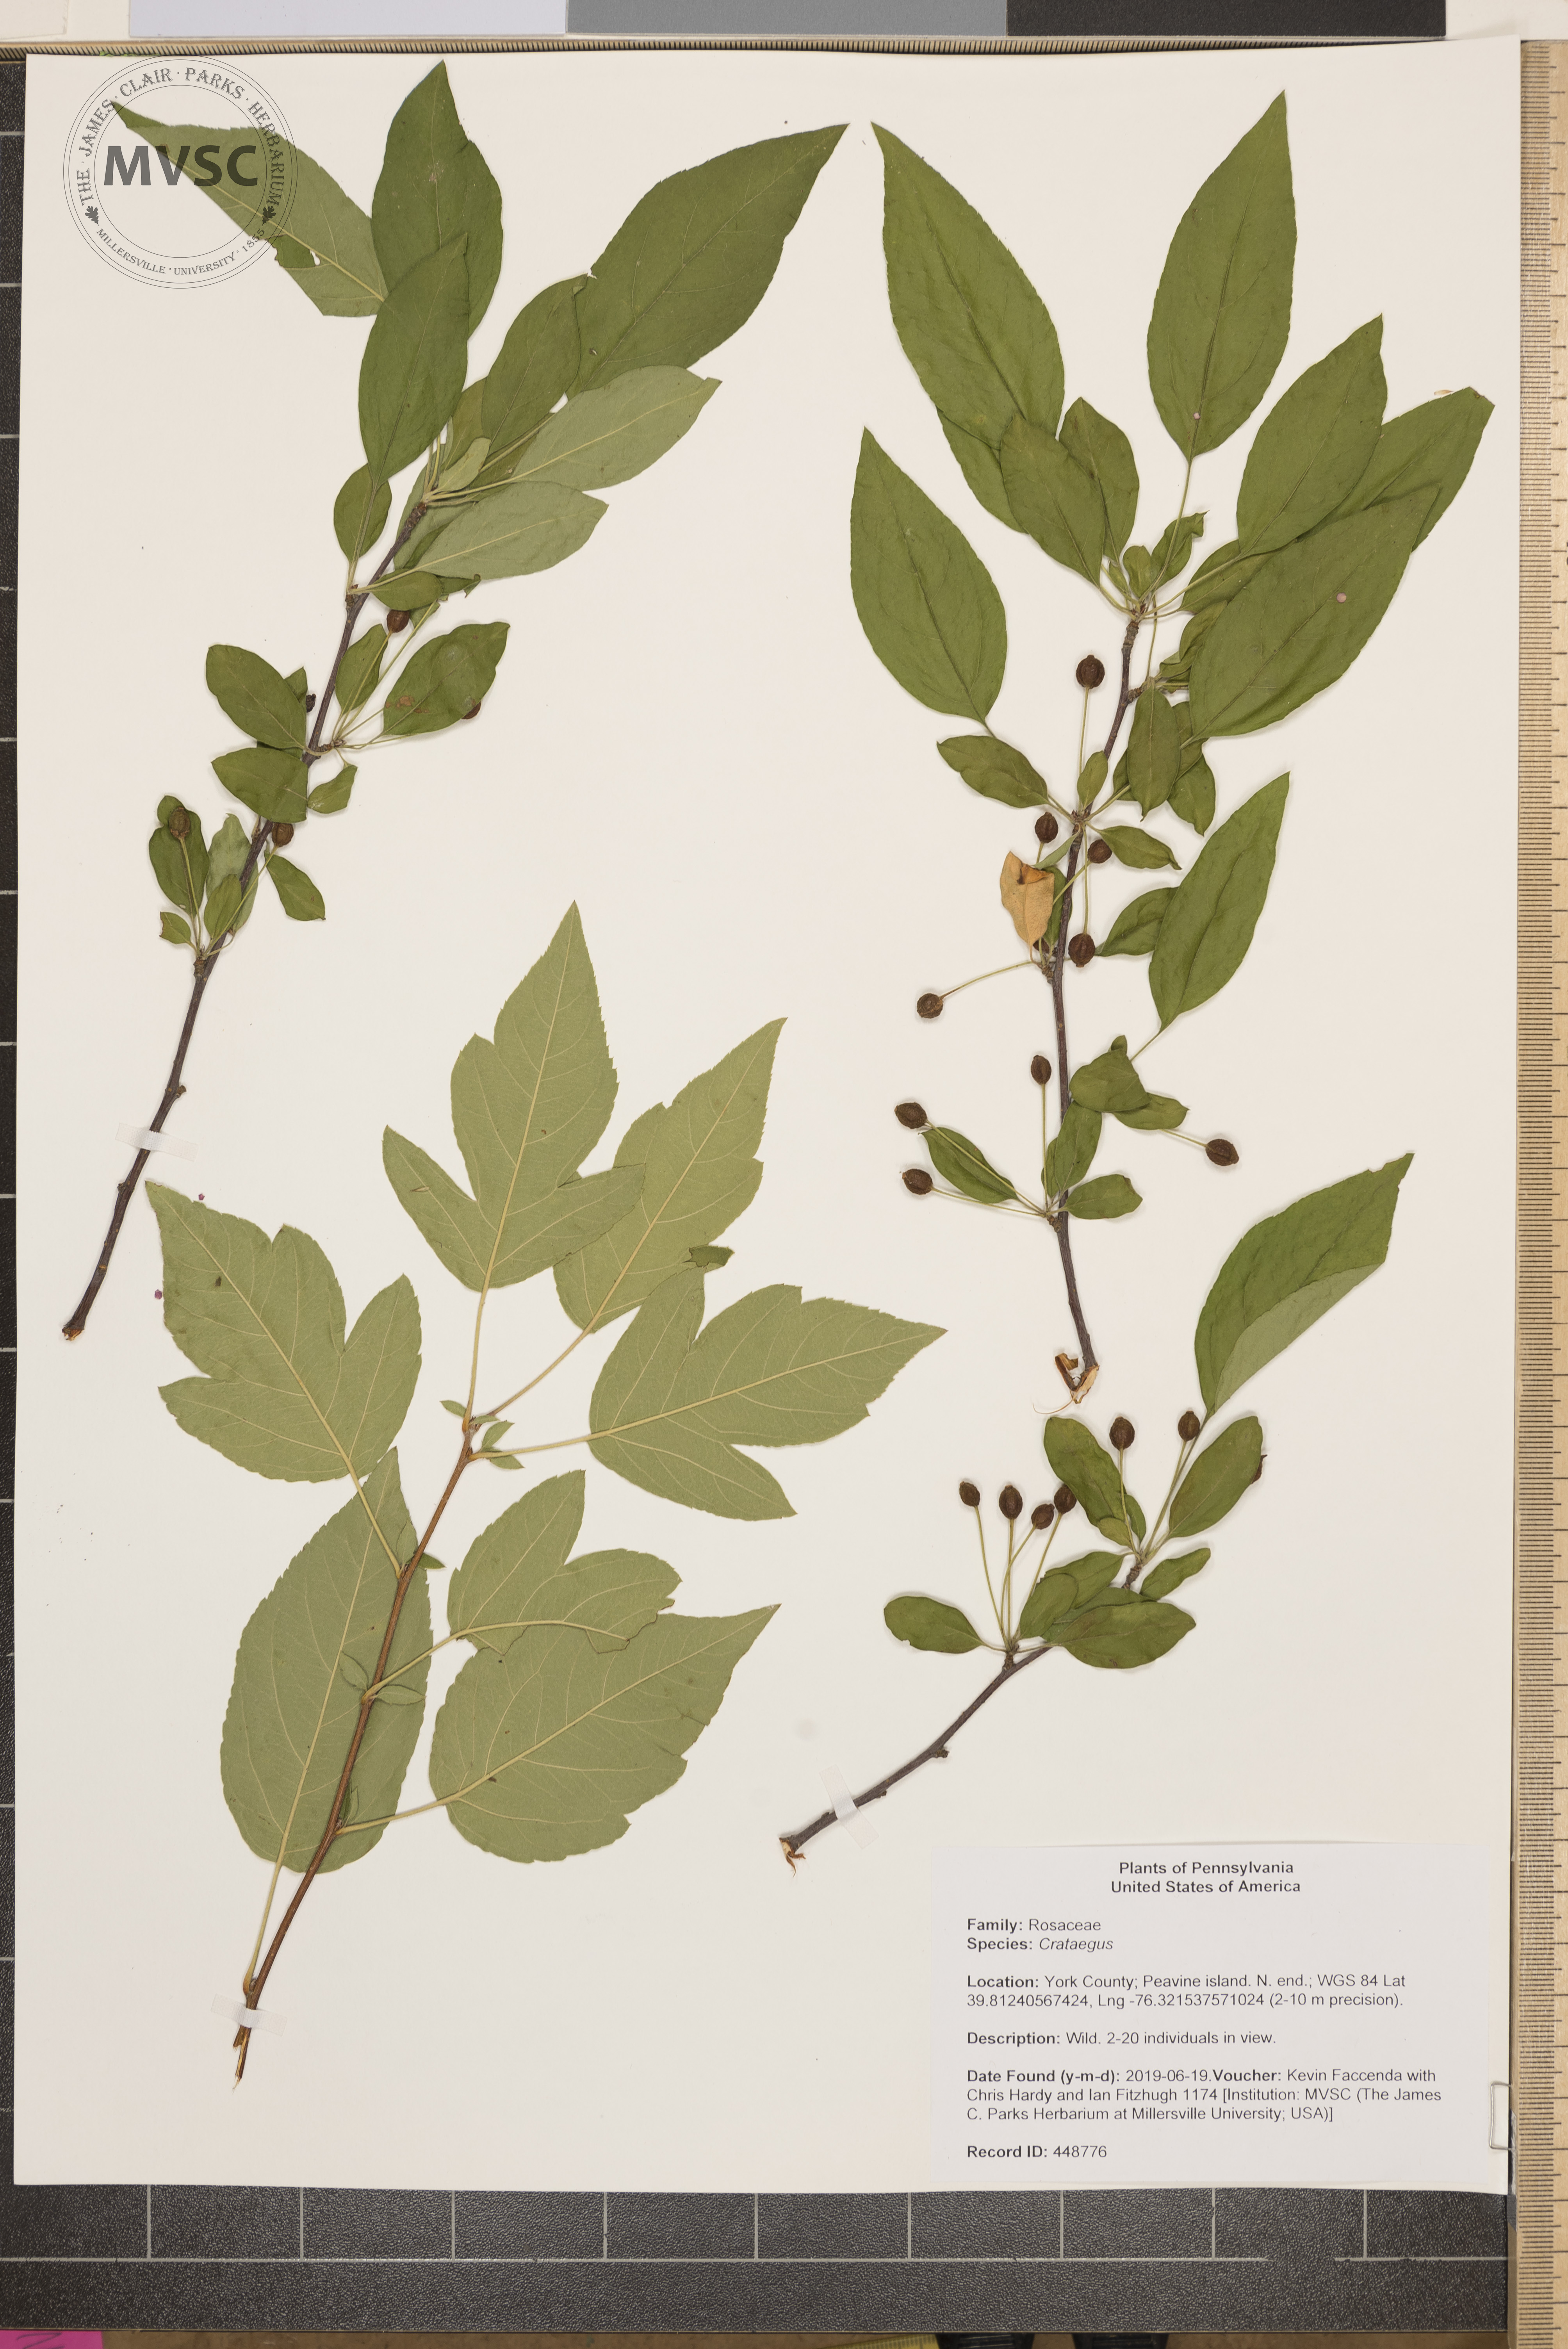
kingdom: Plantae
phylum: Tracheophyta
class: Magnoliopsida
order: Rosales
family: Rosaceae
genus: Crataegus
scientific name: Crataegus
